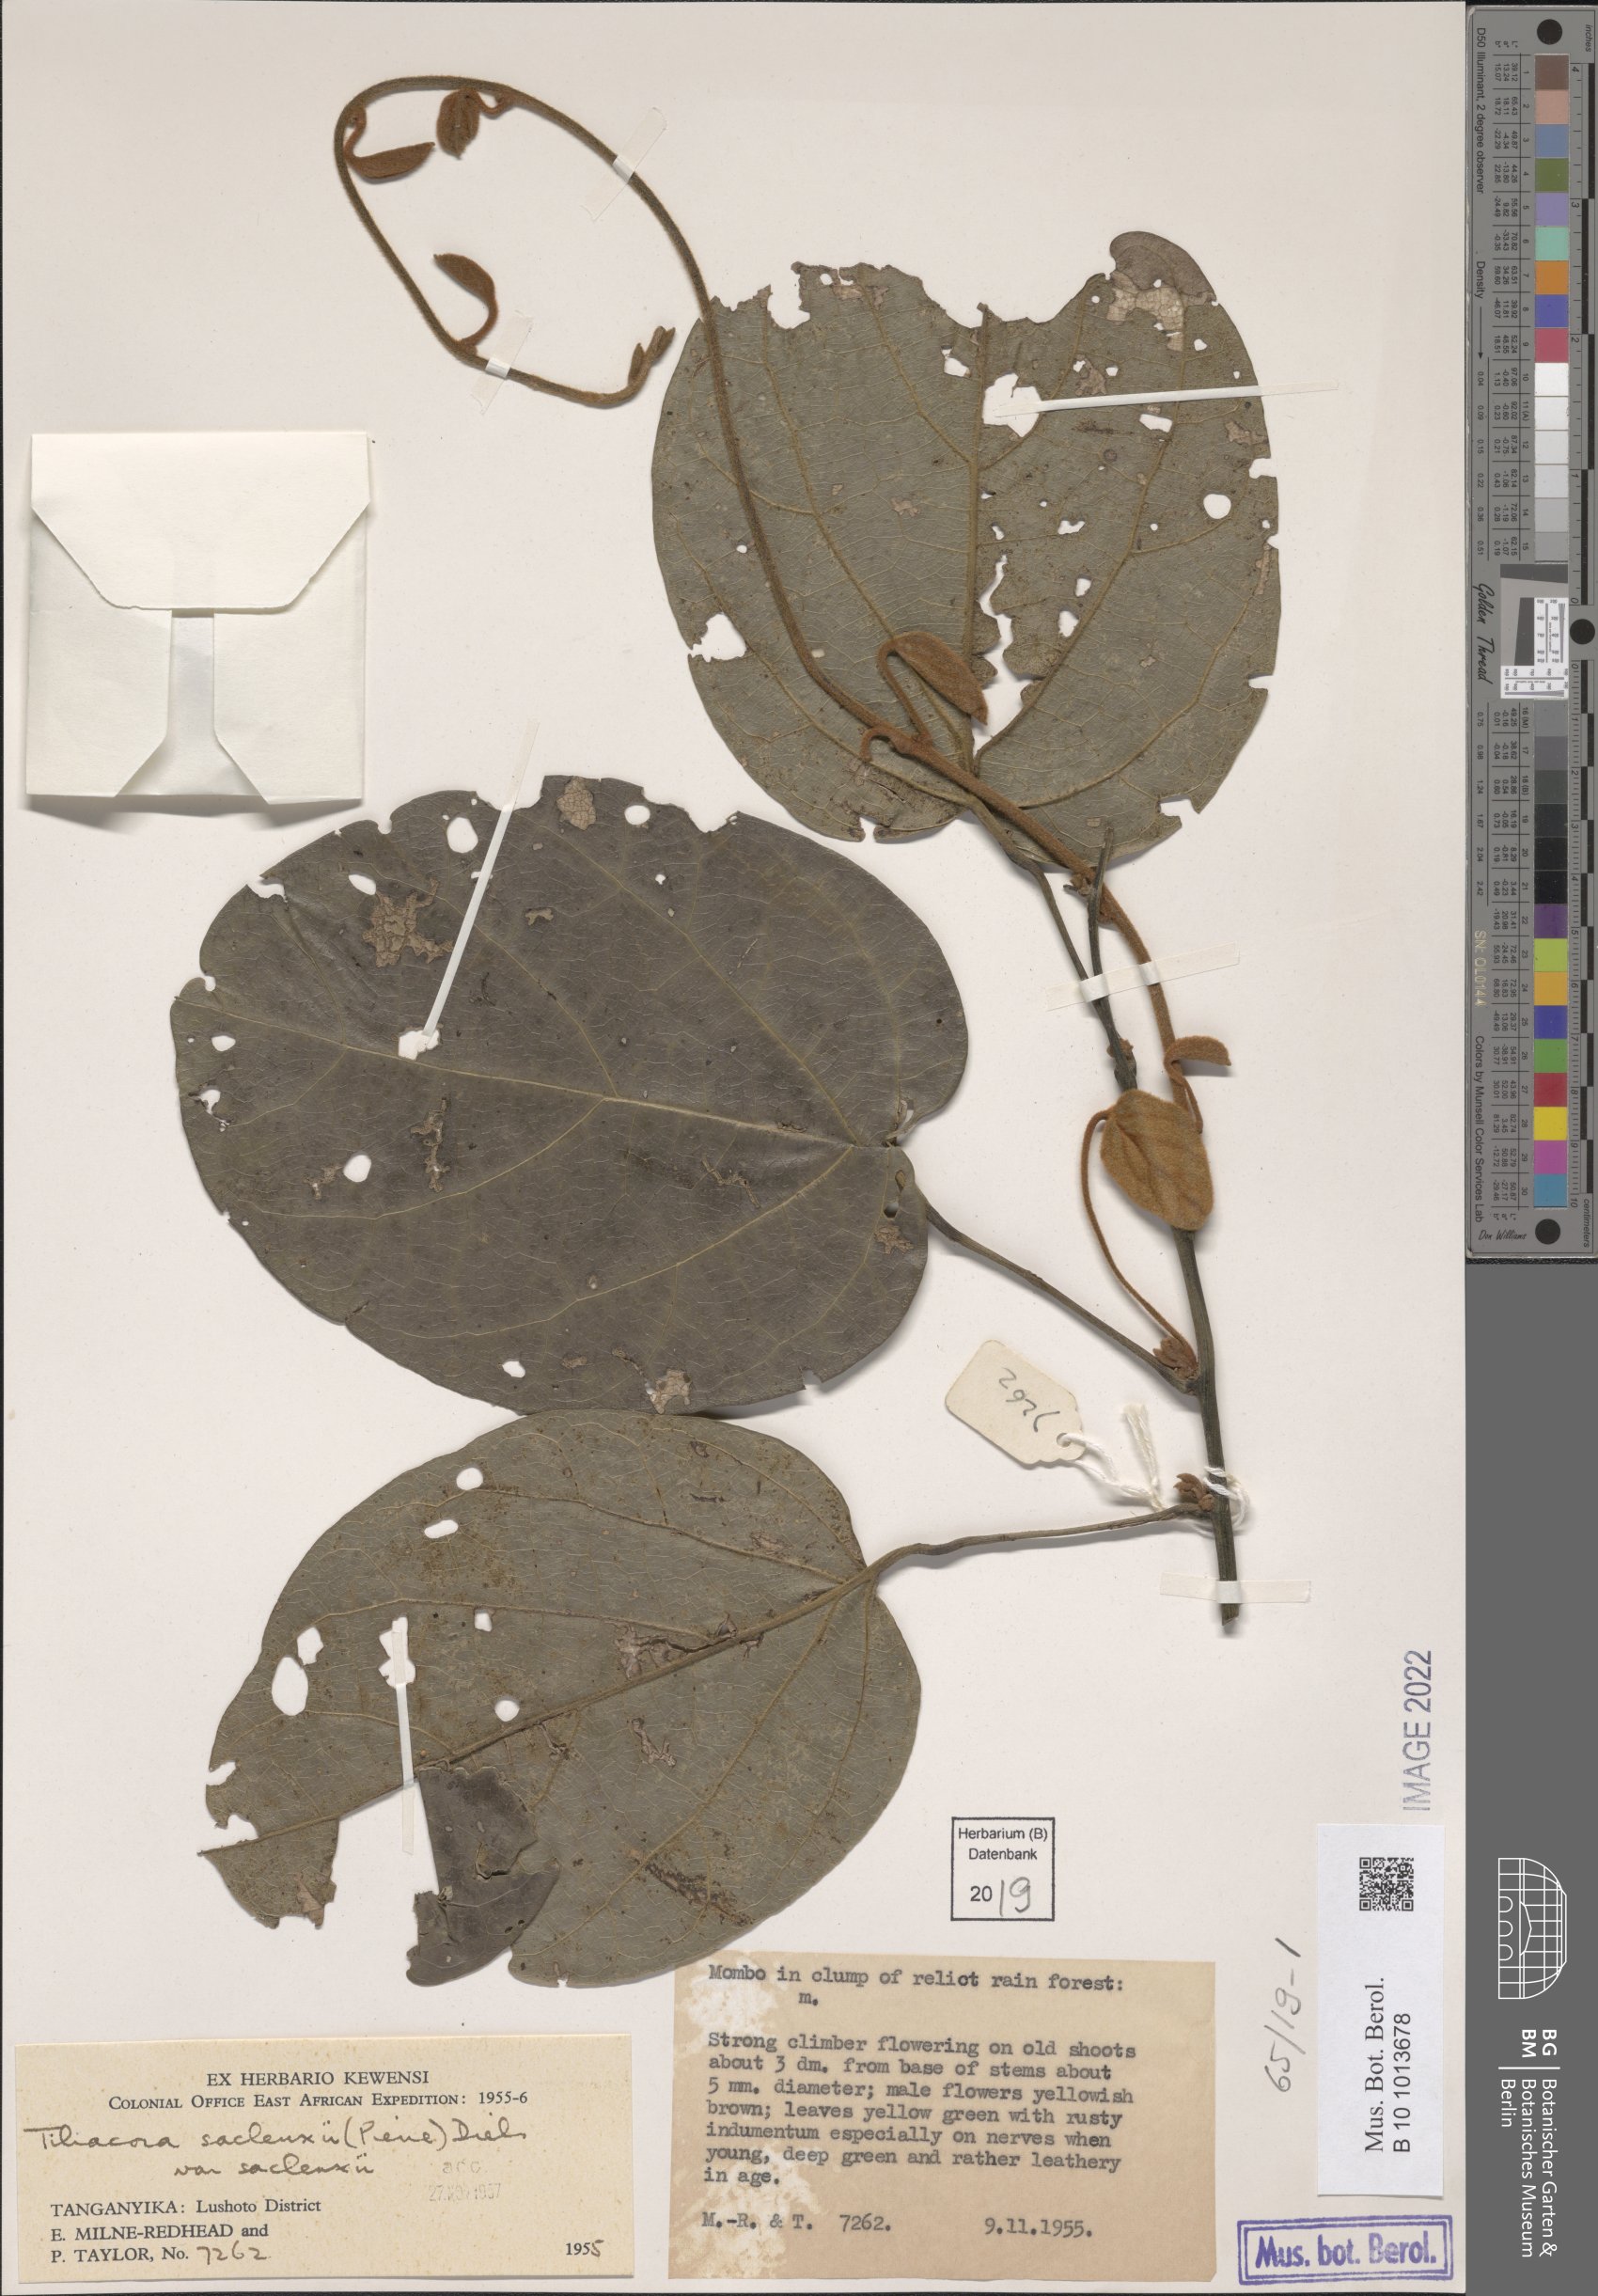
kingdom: Plantae
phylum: Tracheophyta
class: Magnoliopsida
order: Ranunculales
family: Menispermaceae
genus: Tiliacora
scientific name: Tiliacora
